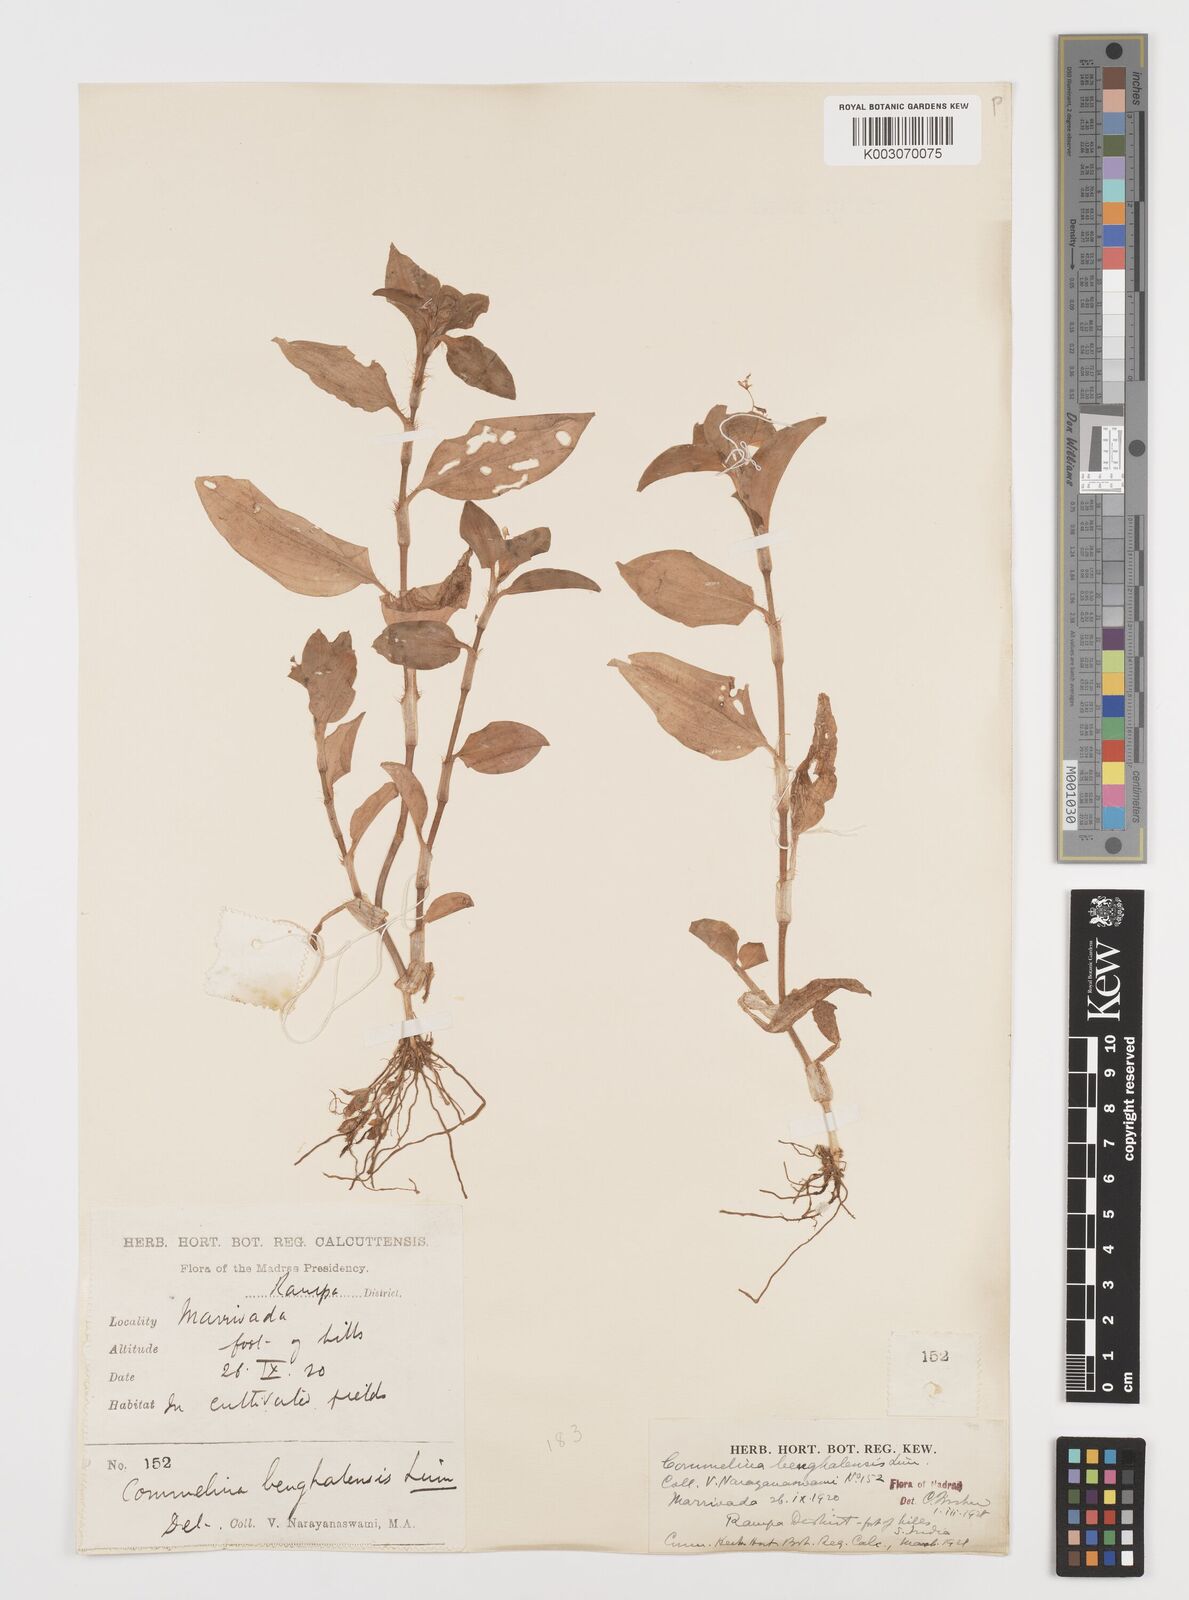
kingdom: Plantae
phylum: Tracheophyta
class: Liliopsida
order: Commelinales
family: Commelinaceae
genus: Commelina
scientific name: Commelina benghalensis
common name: Jio
